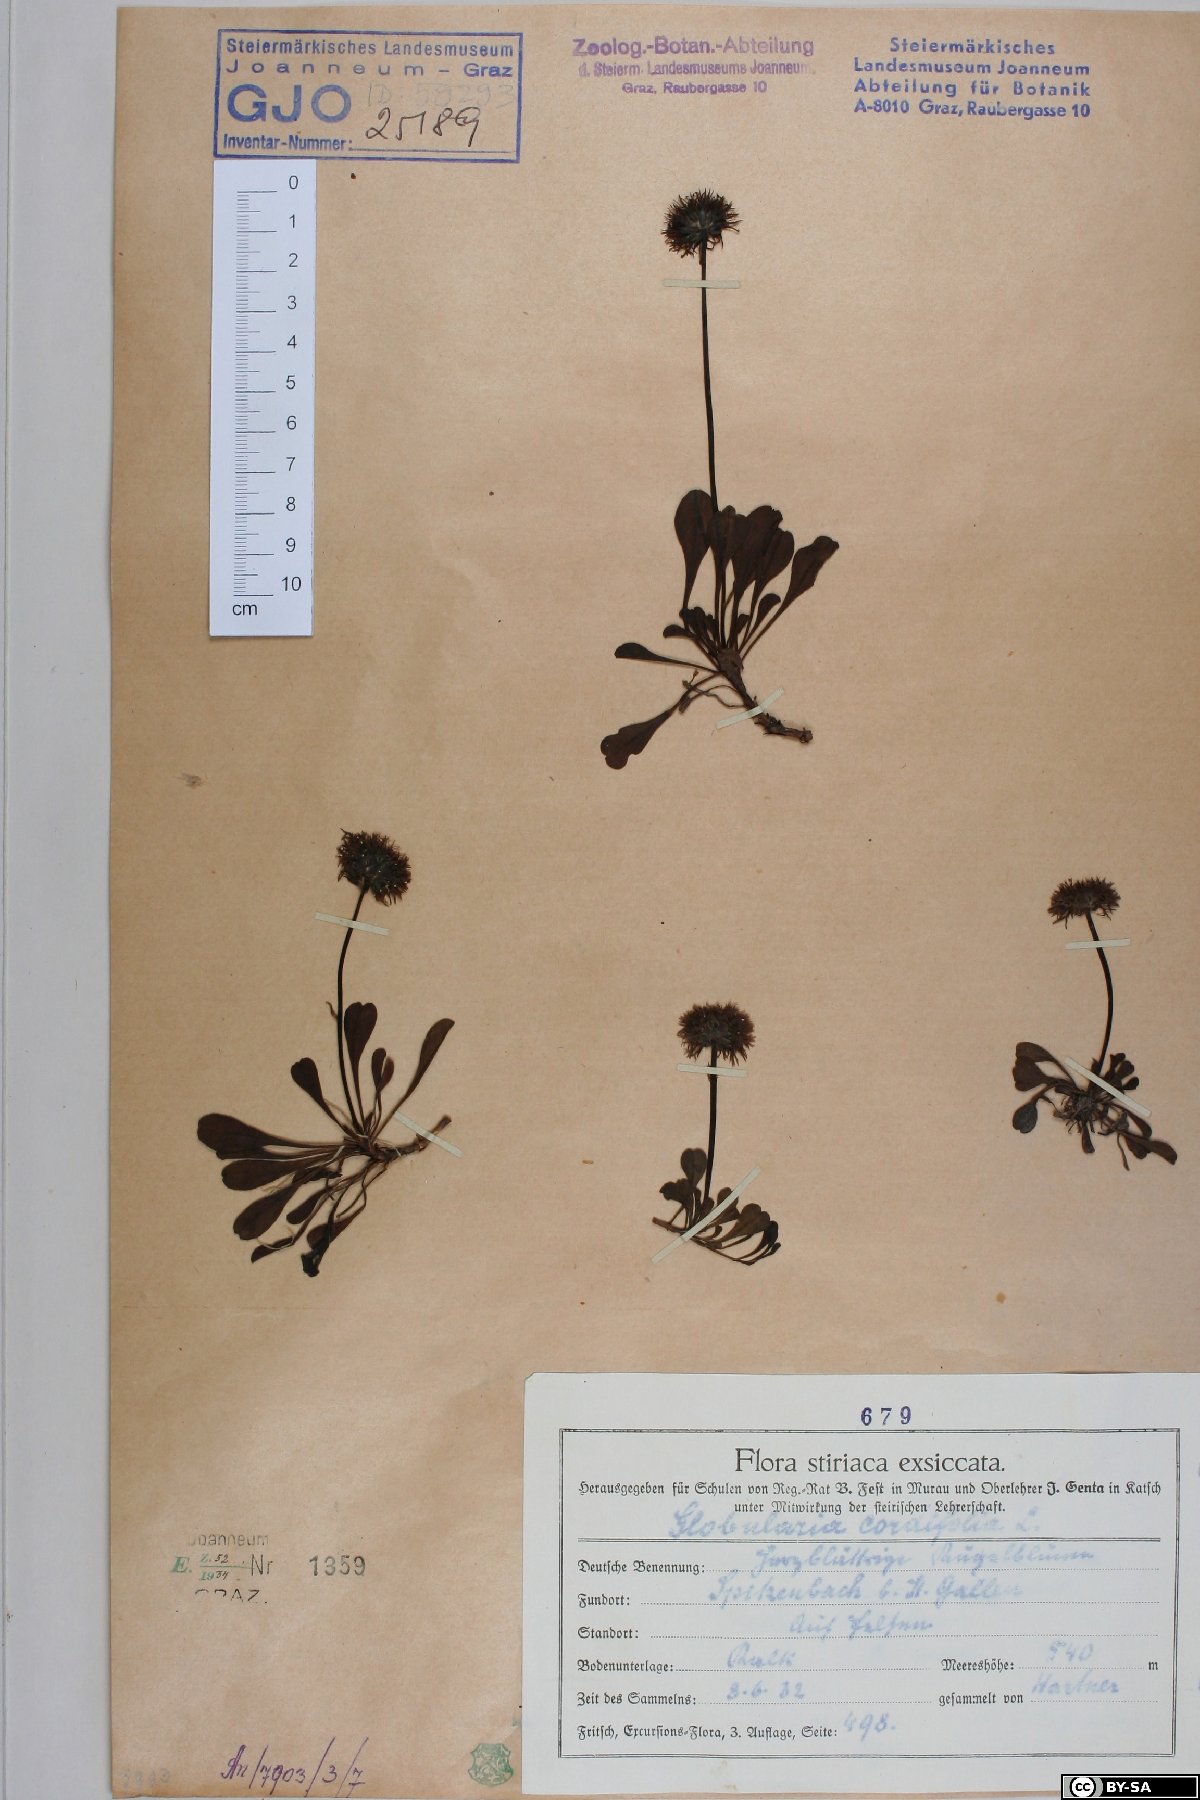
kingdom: Plantae
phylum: Tracheophyta
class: Magnoliopsida
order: Lamiales
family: Plantaginaceae
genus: Globularia
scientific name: Globularia cordifolia
